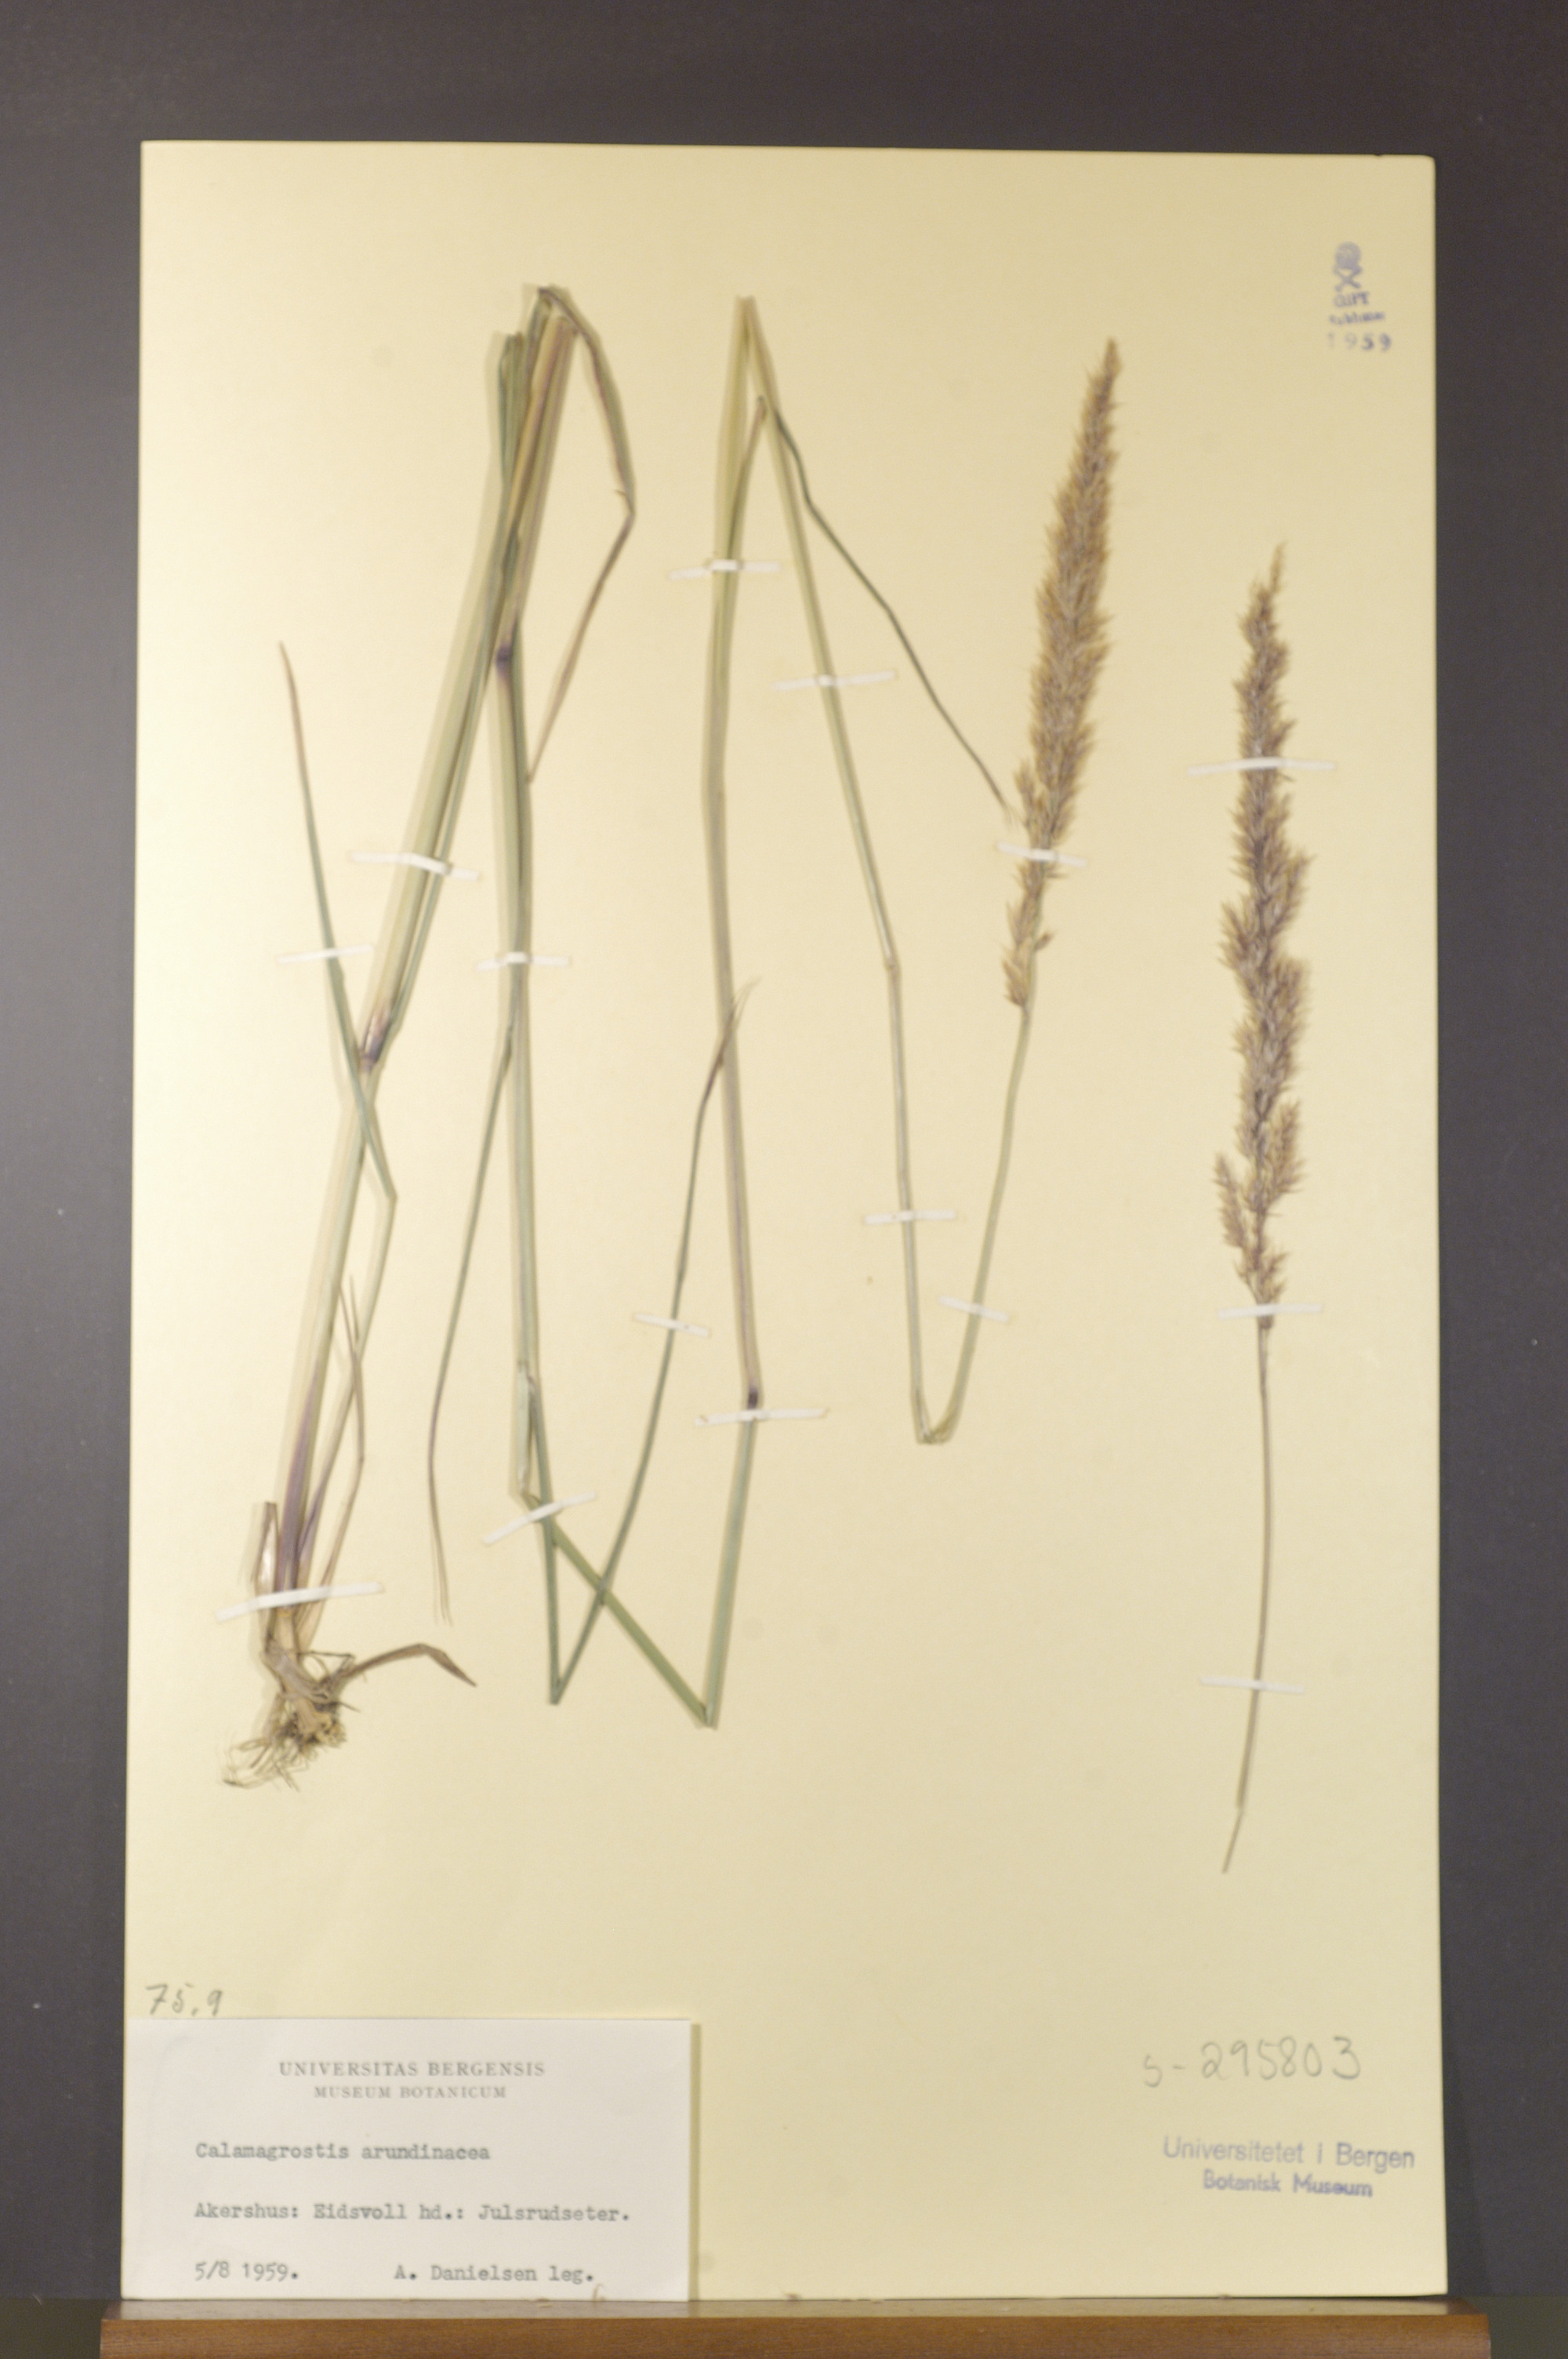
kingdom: Plantae
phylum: Tracheophyta
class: Liliopsida
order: Poales
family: Poaceae
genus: Calamagrostis
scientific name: Calamagrostis arundinacea
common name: Metskastik
